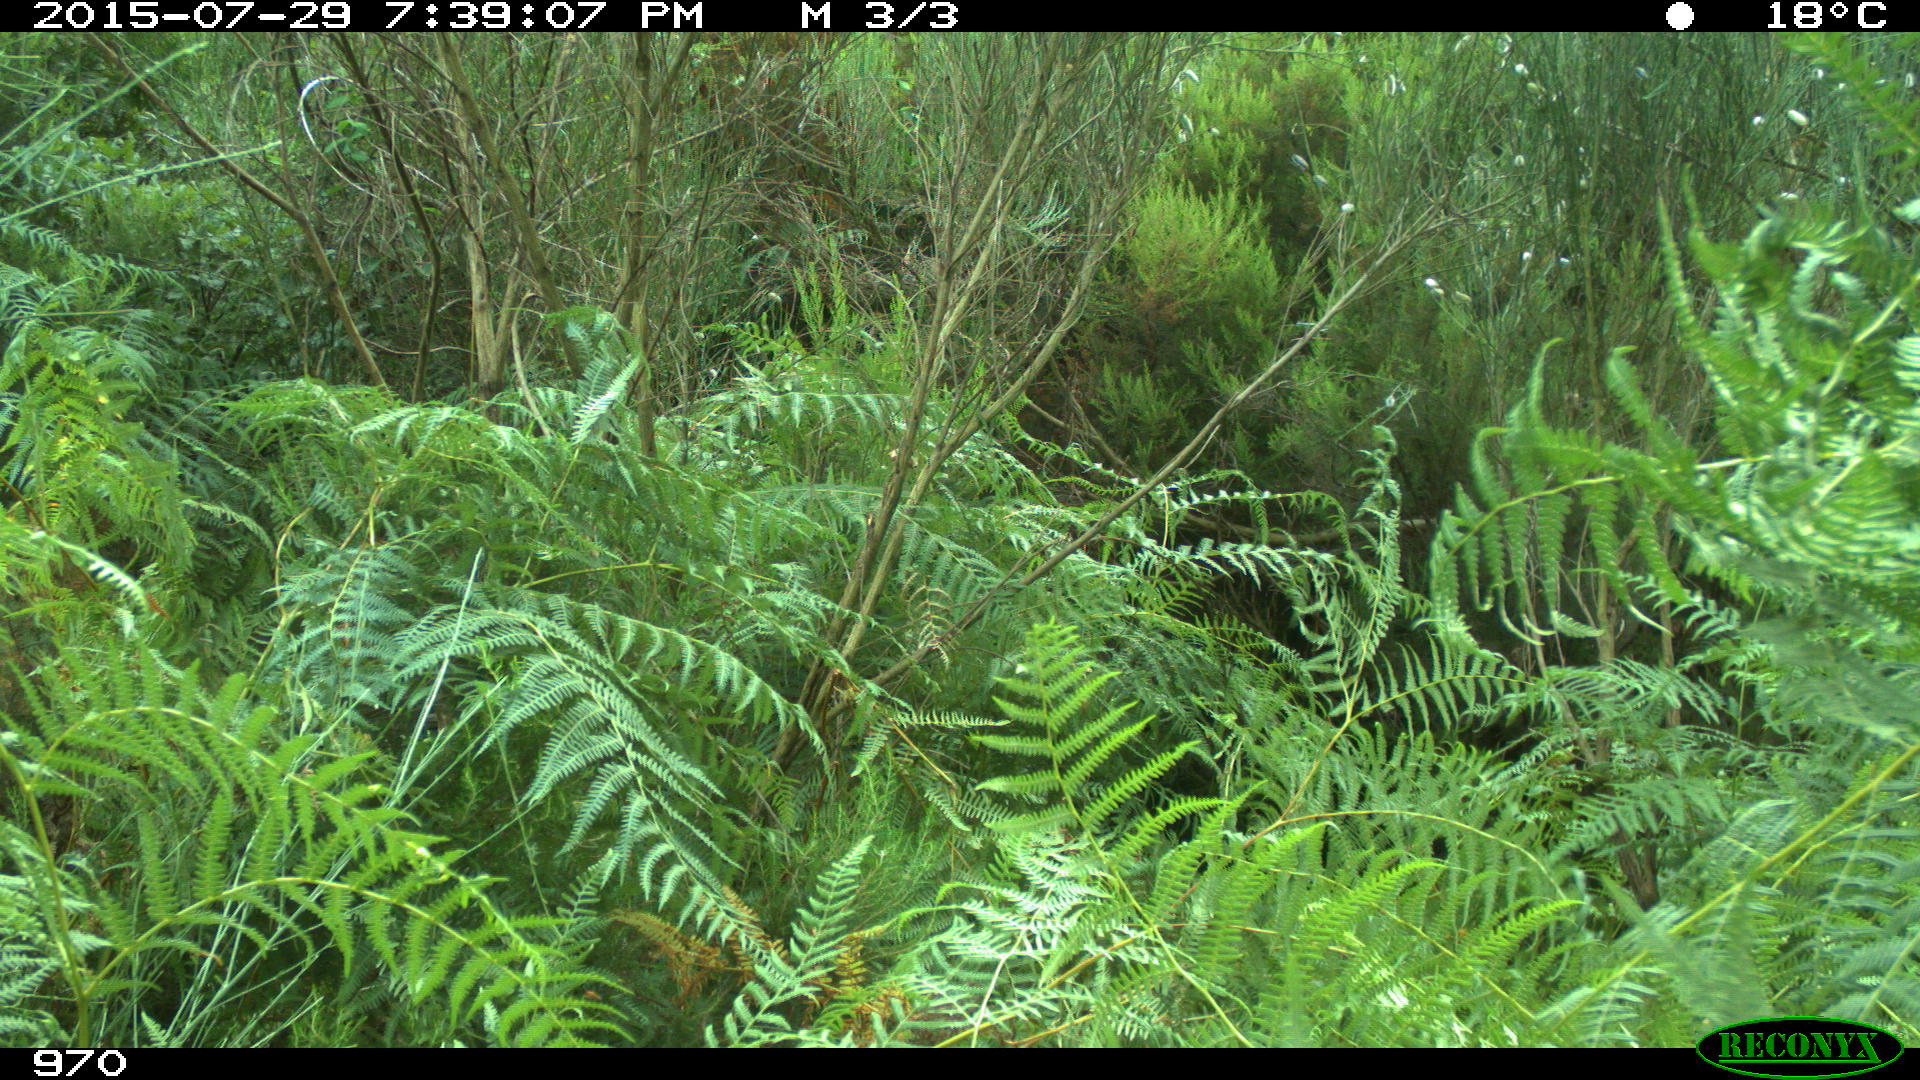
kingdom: Animalia
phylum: Chordata
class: Mammalia
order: Artiodactyla
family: Bovidae
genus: Bos
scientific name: Bos taurus
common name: Domesticated cattle
